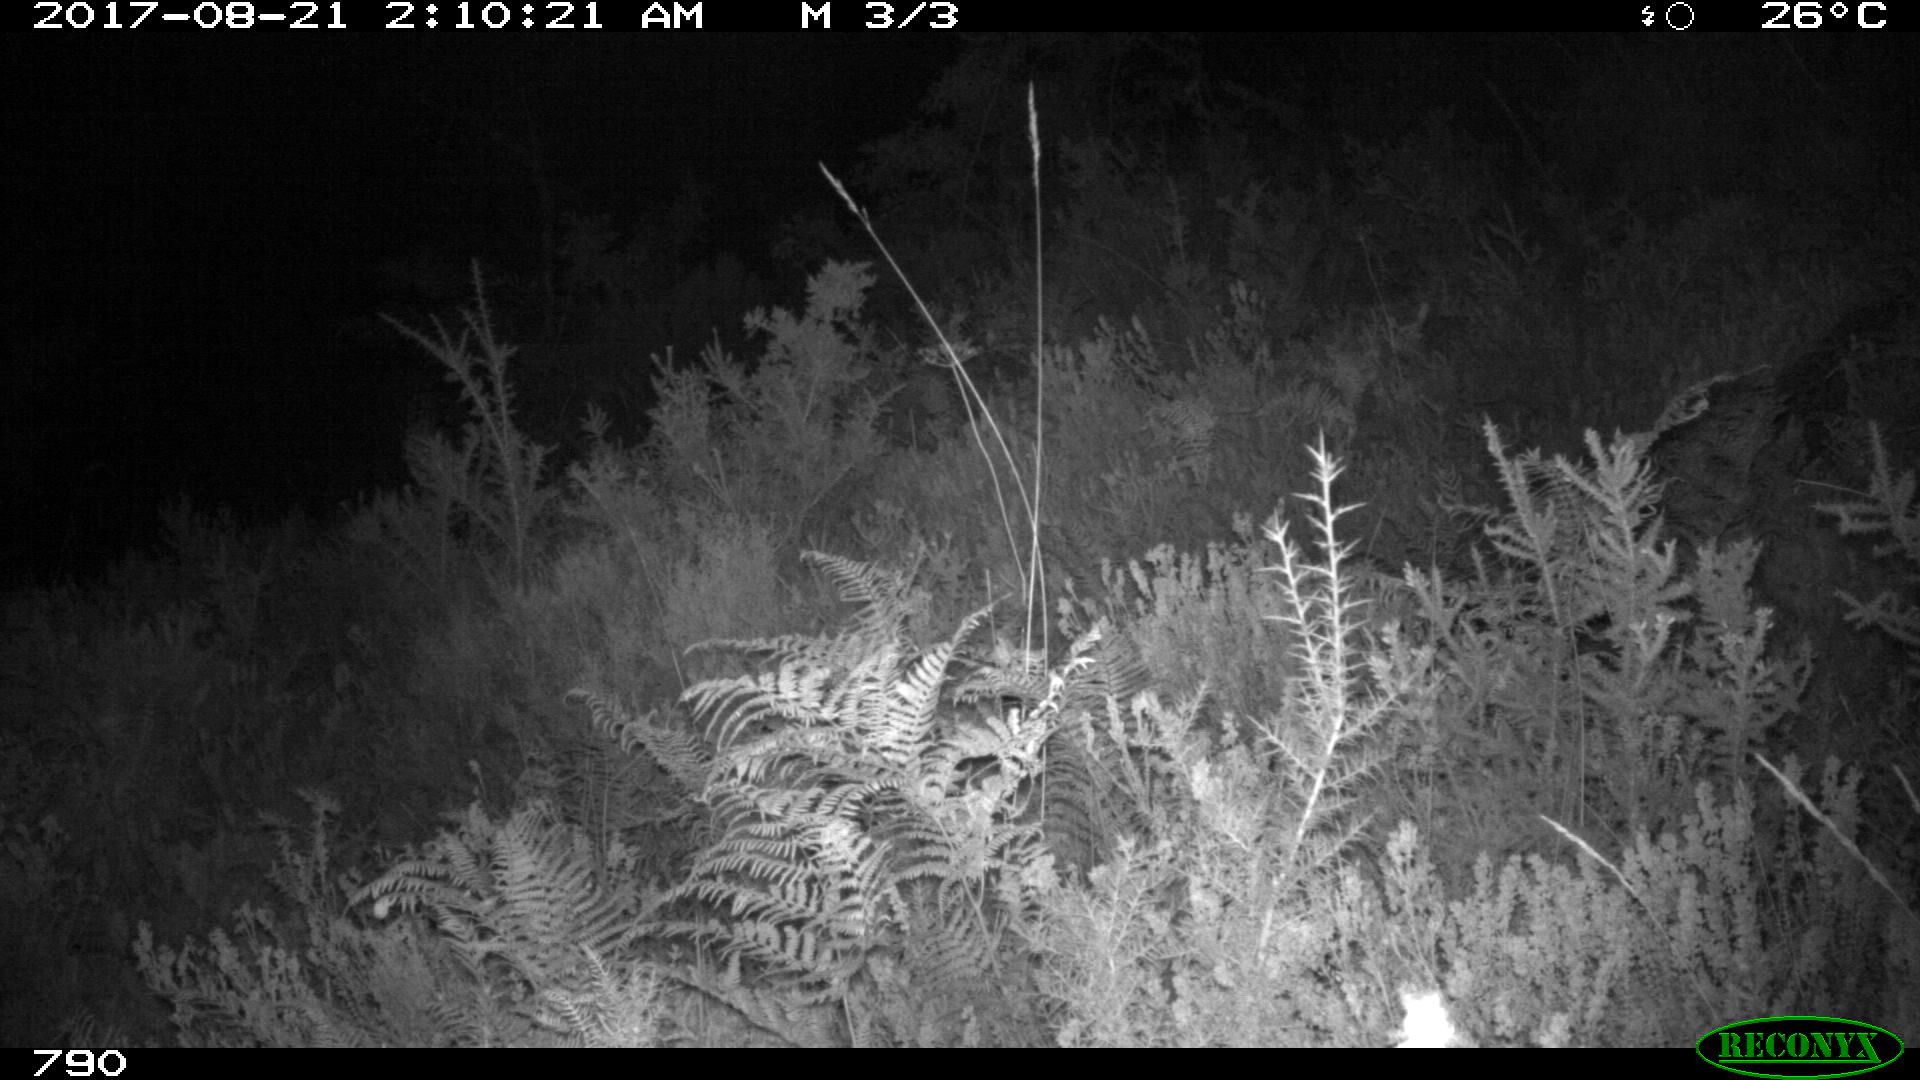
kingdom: Animalia
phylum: Chordata
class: Mammalia
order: Artiodactyla
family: Cervidae
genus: Capreolus
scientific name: Capreolus capreolus
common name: Western roe deer
